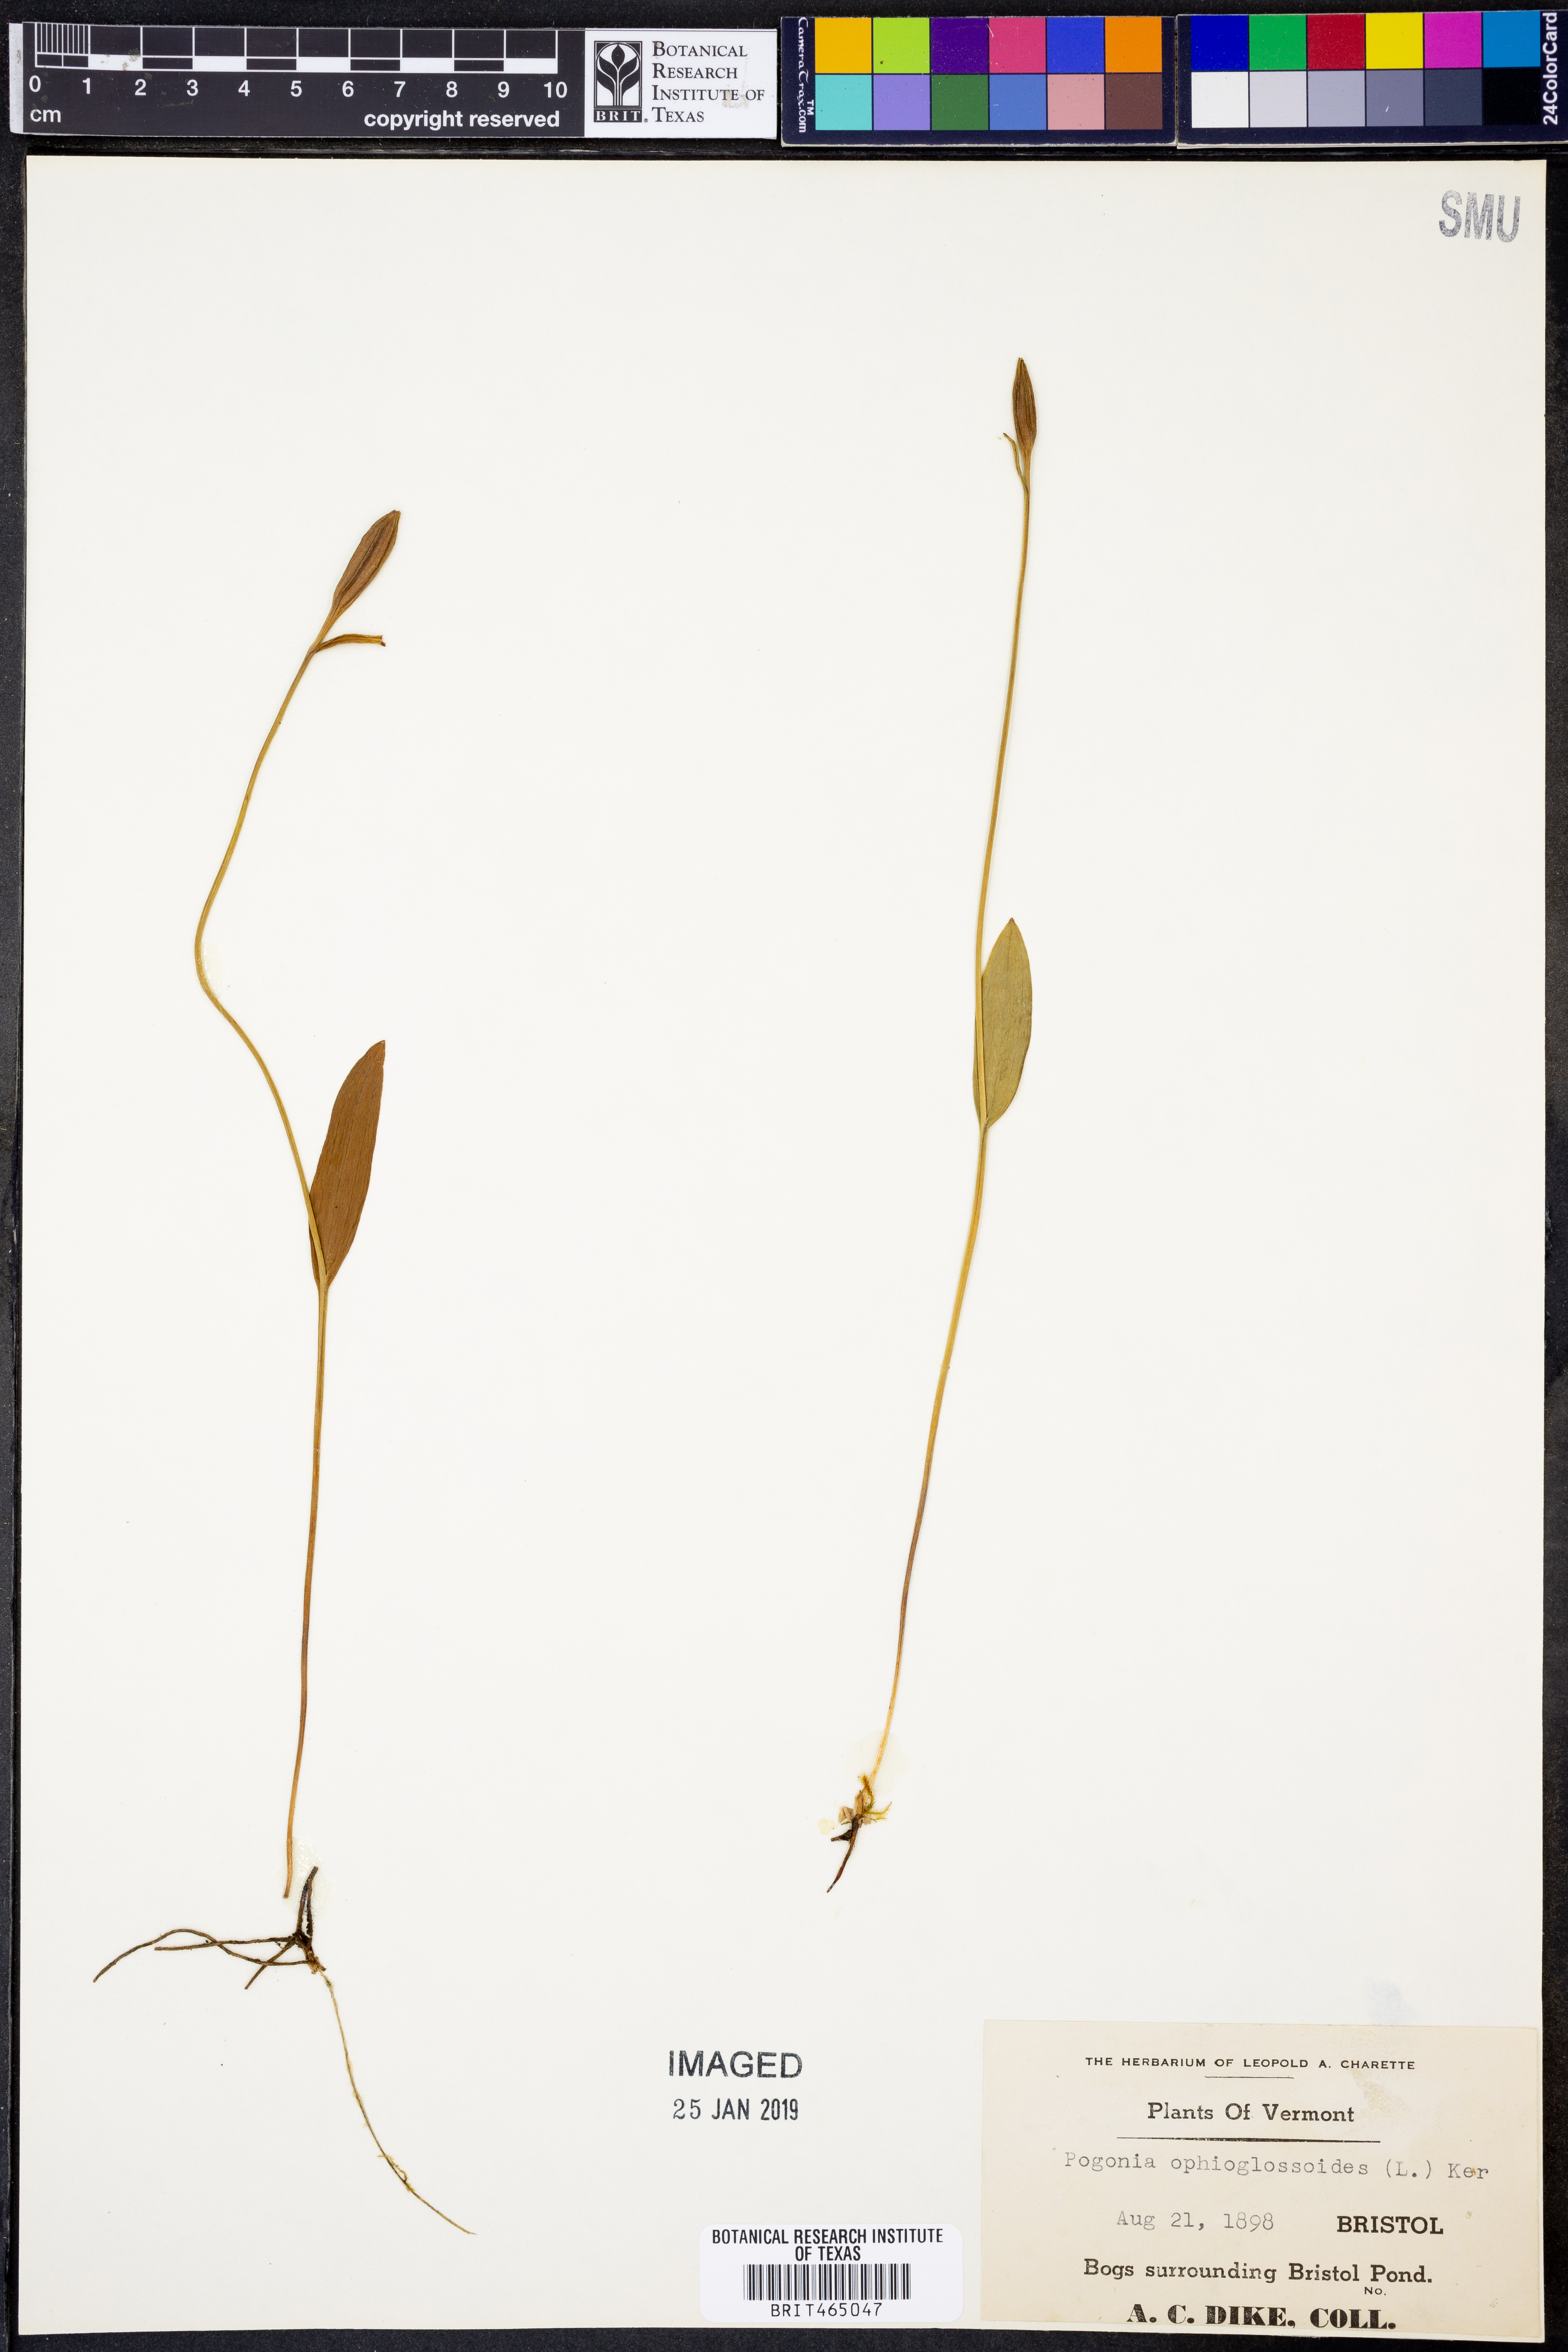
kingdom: Plantae
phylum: Tracheophyta
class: Liliopsida
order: Asparagales
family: Orchidaceae
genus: Pogonia
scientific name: Pogonia ophioglossoides
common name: Rose pogonia
